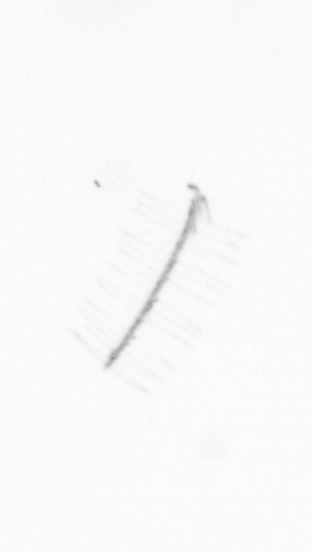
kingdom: Chromista
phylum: Ochrophyta
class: Bacillariophyceae
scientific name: Bacillariophyceae
